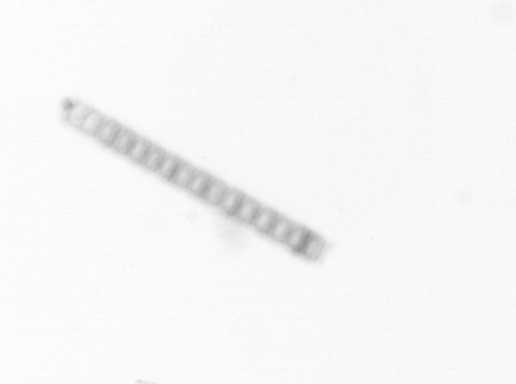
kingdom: Chromista
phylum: Ochrophyta
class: Bacillariophyceae
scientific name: Bacillariophyceae
